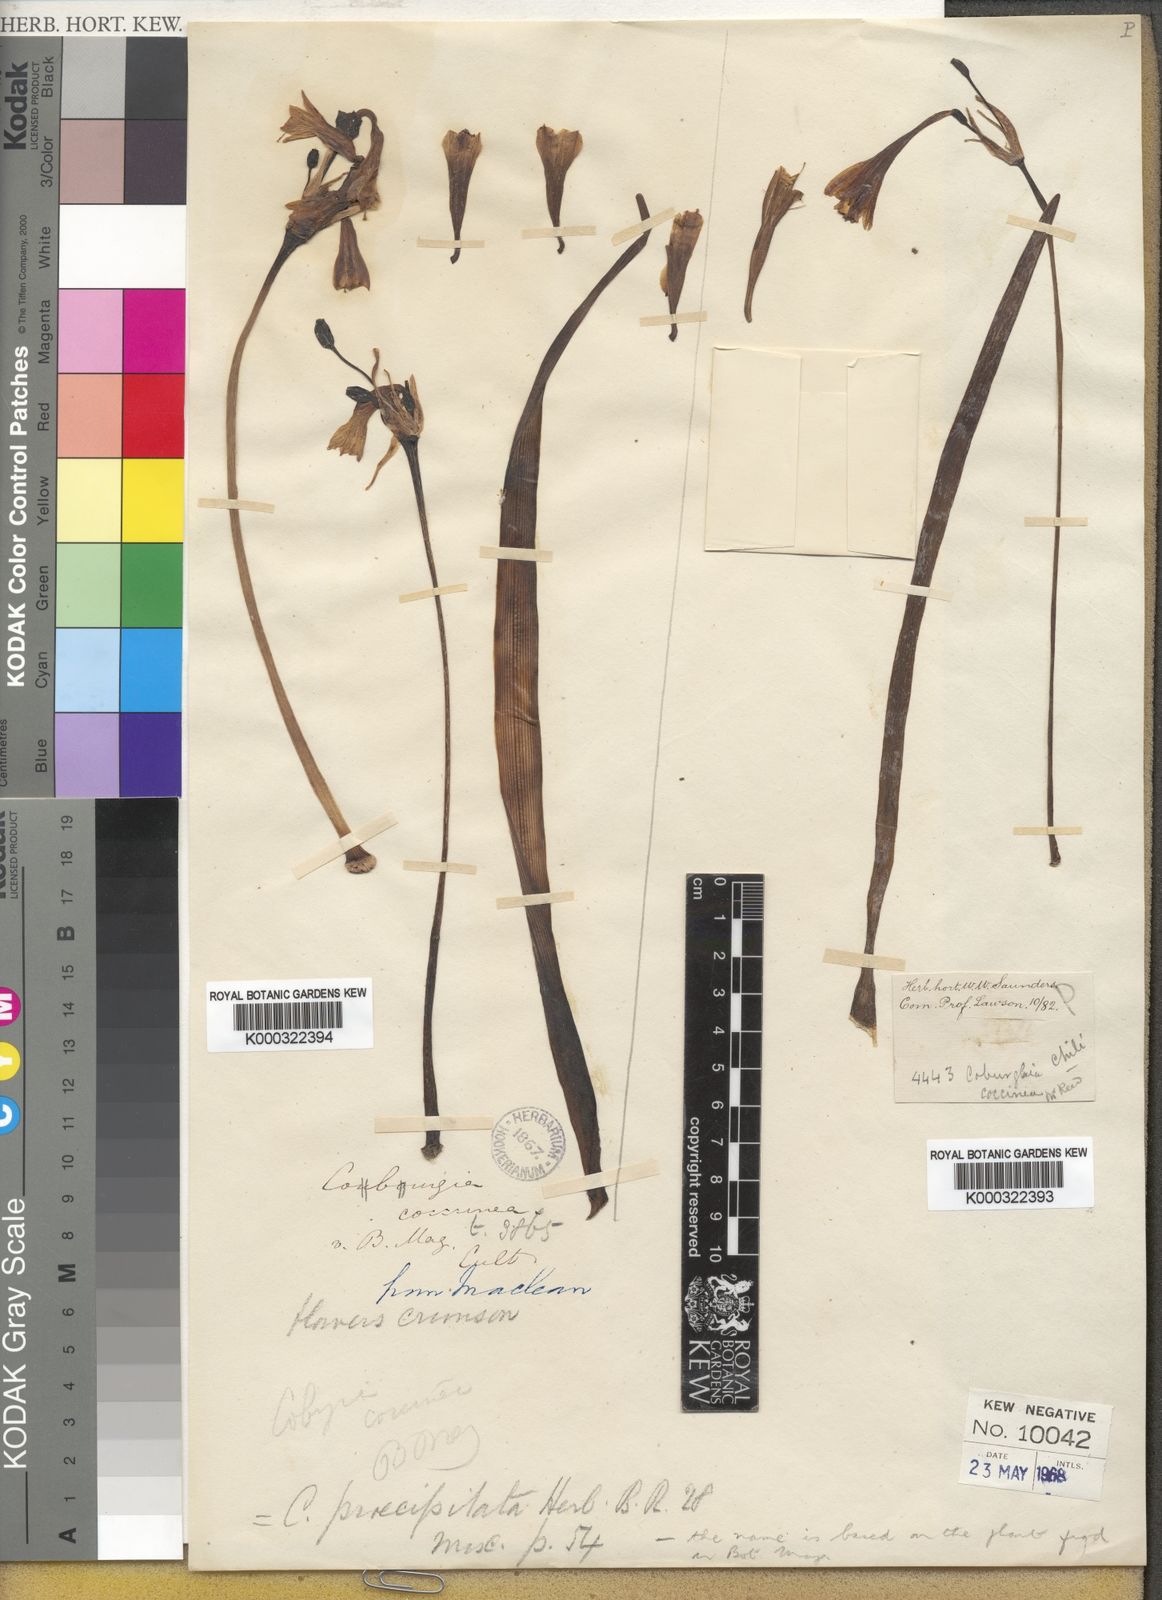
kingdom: Plantae
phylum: Tracheophyta
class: Liliopsida
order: Asparagales
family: Amaryllidaceae
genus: Stenomesson
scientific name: Stenomesson
